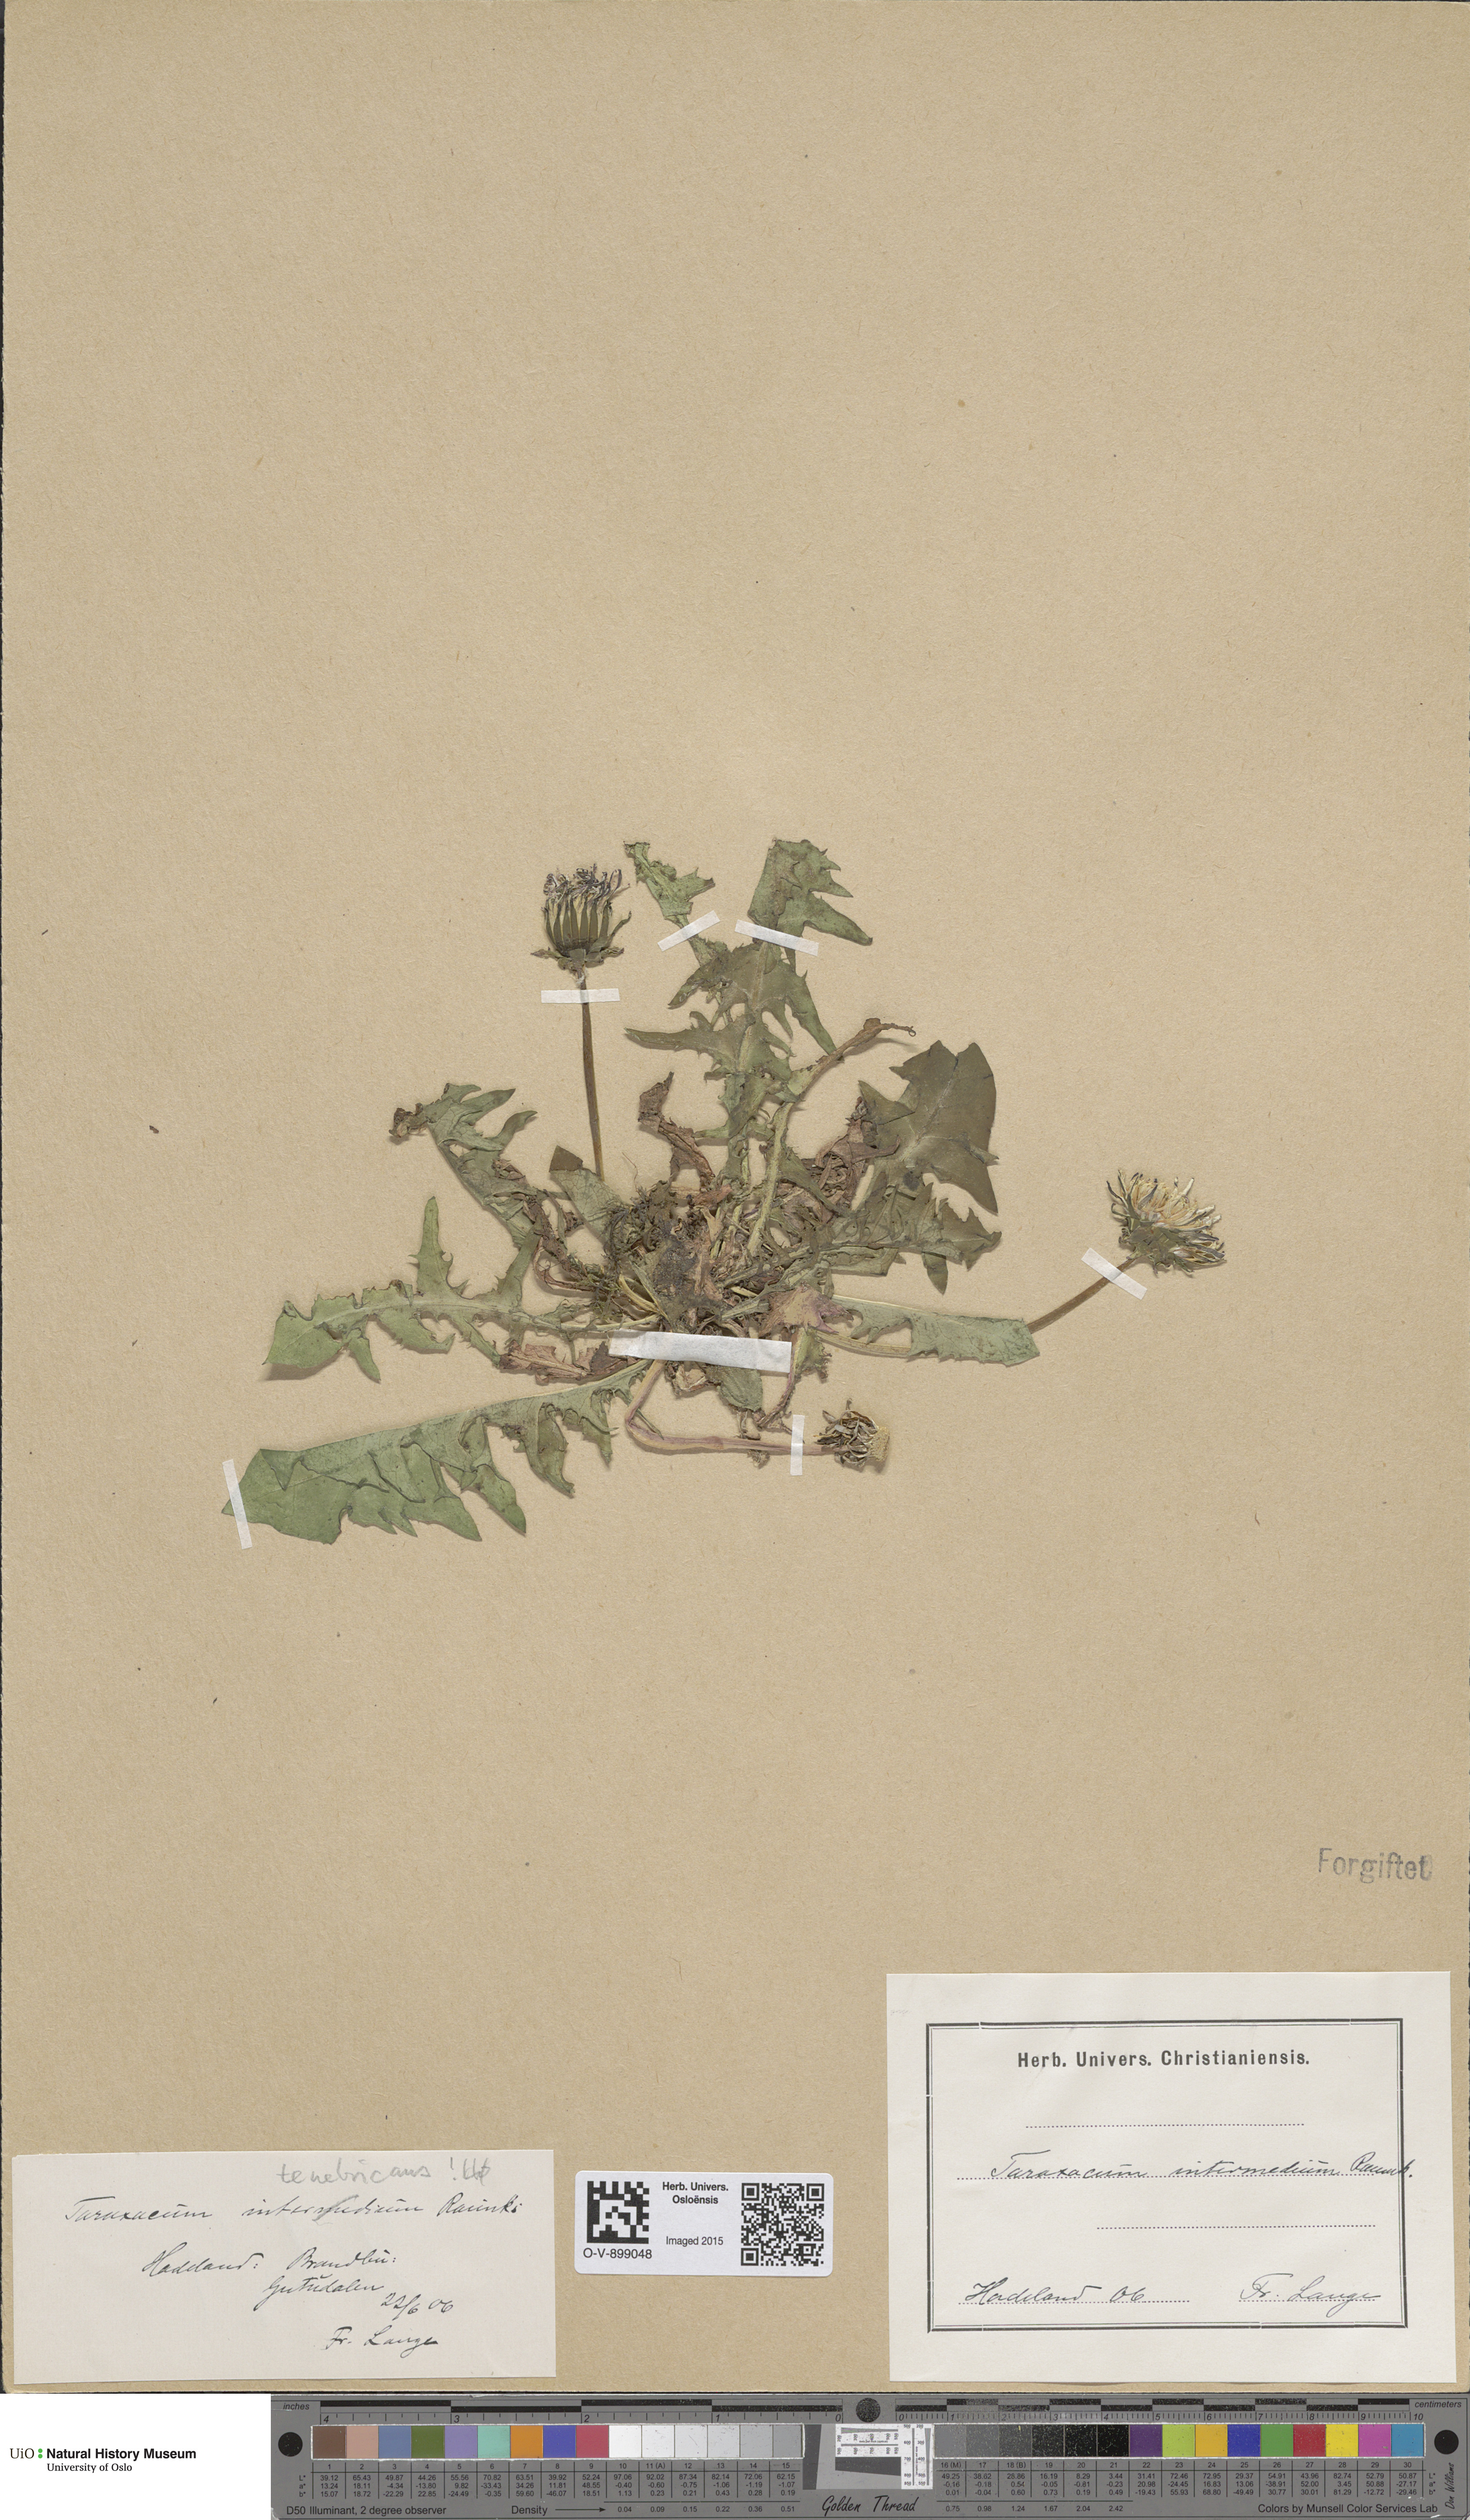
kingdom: Plantae
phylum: Tracheophyta
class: Magnoliopsida
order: Asterales
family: Asteraceae
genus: Taraxacum
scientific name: Taraxacum intermedium
